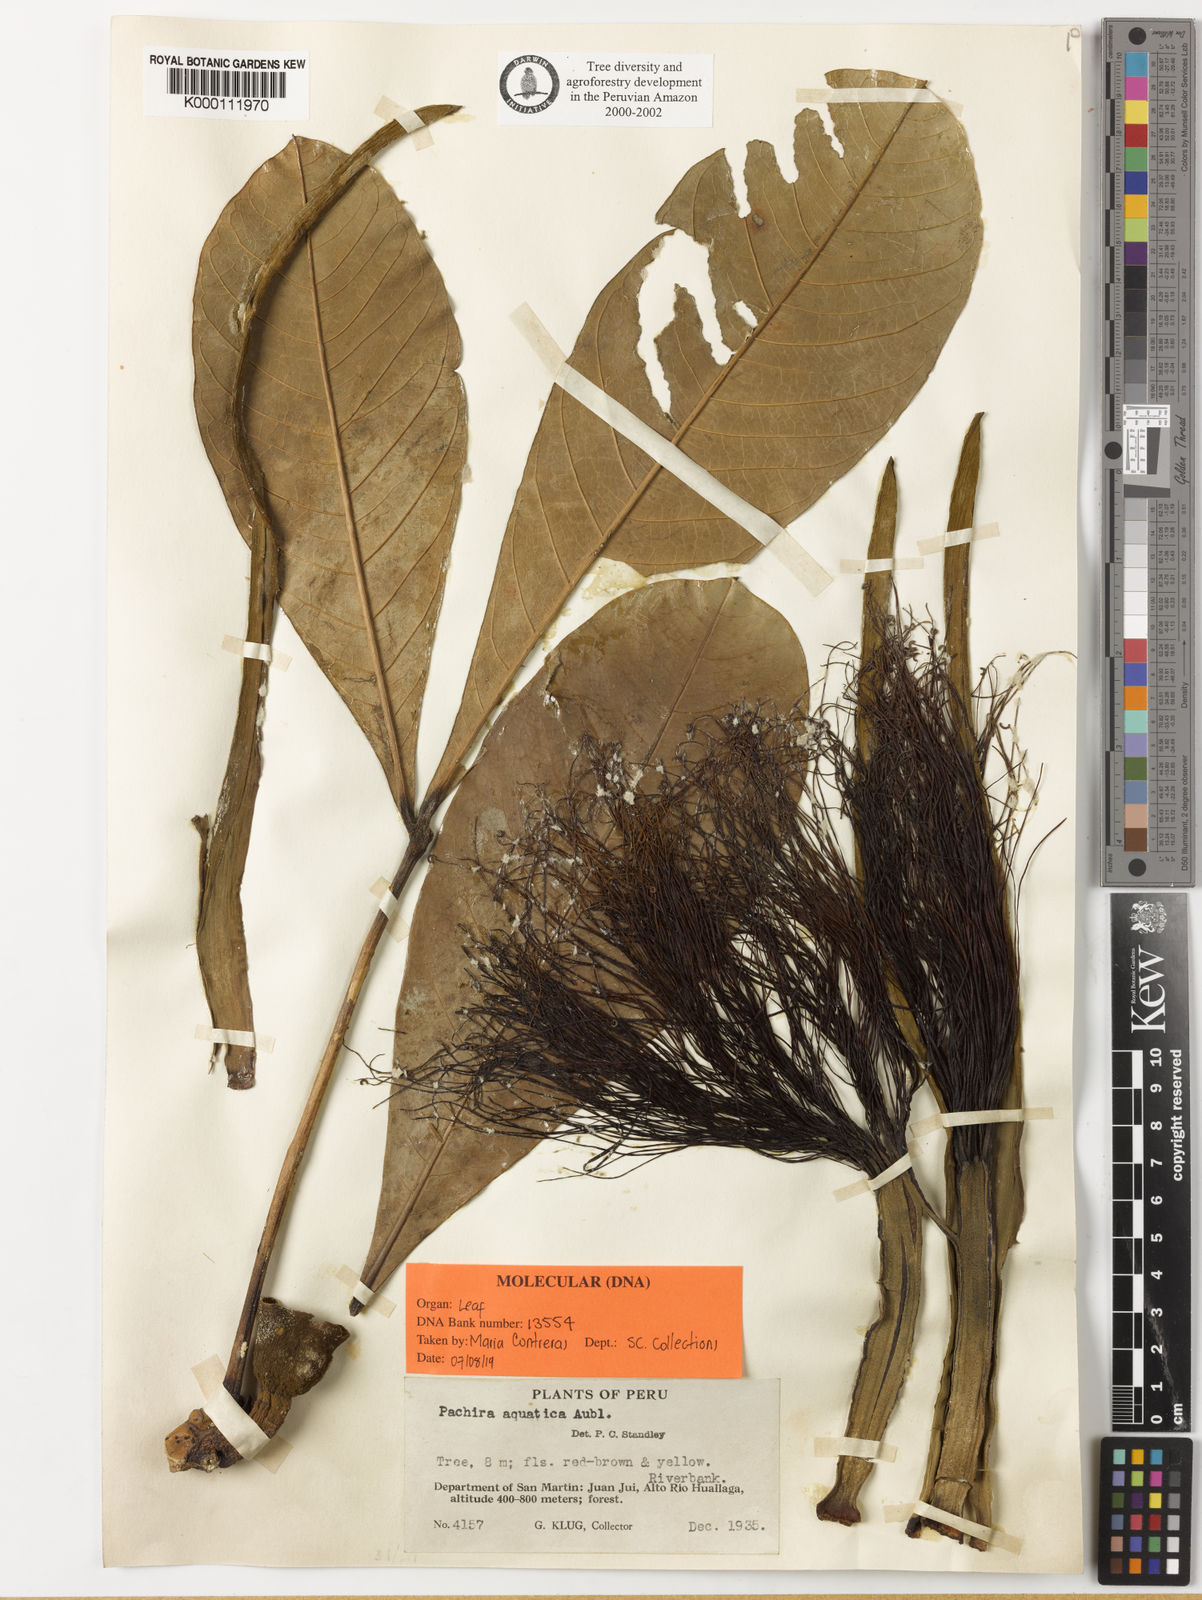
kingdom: Plantae
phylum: Tracheophyta
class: Magnoliopsida
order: Malvales
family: Malvaceae
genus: Pachira
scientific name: Pachira insignis
